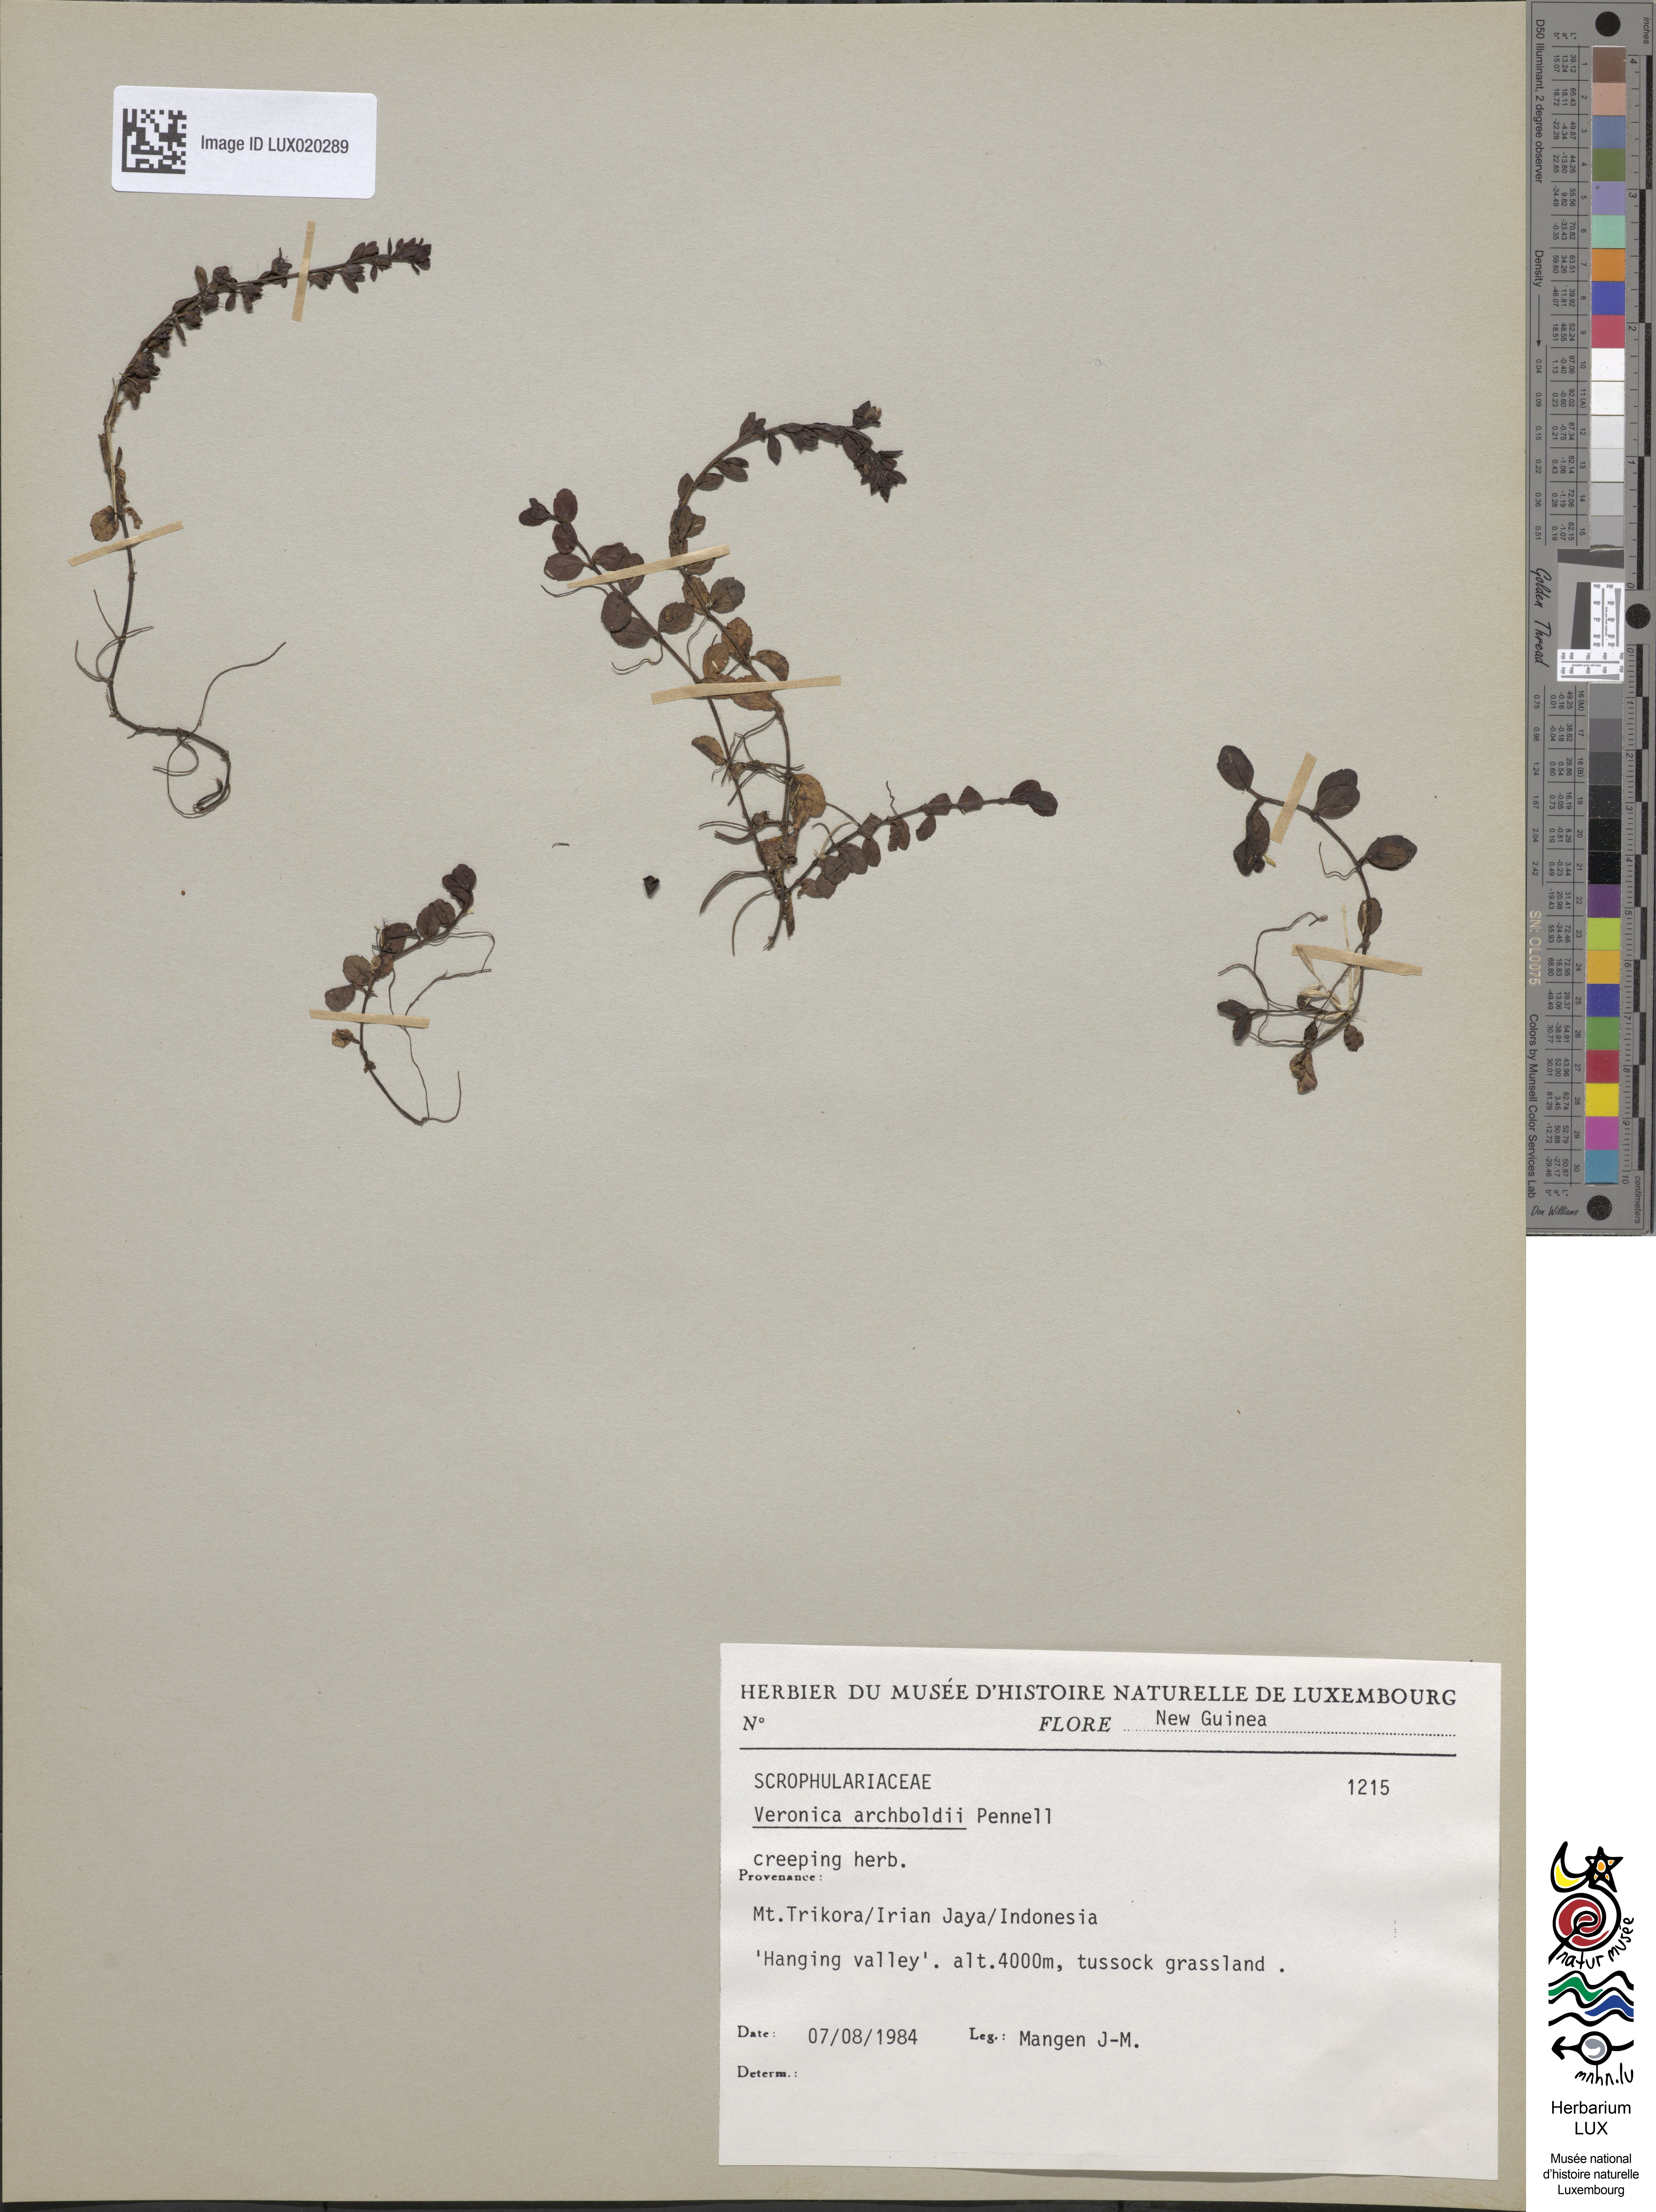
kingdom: Plantae
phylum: Tracheophyta
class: Magnoliopsida
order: Lamiales
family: Plantaginaceae
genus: Veronica
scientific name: Veronica archboldii
